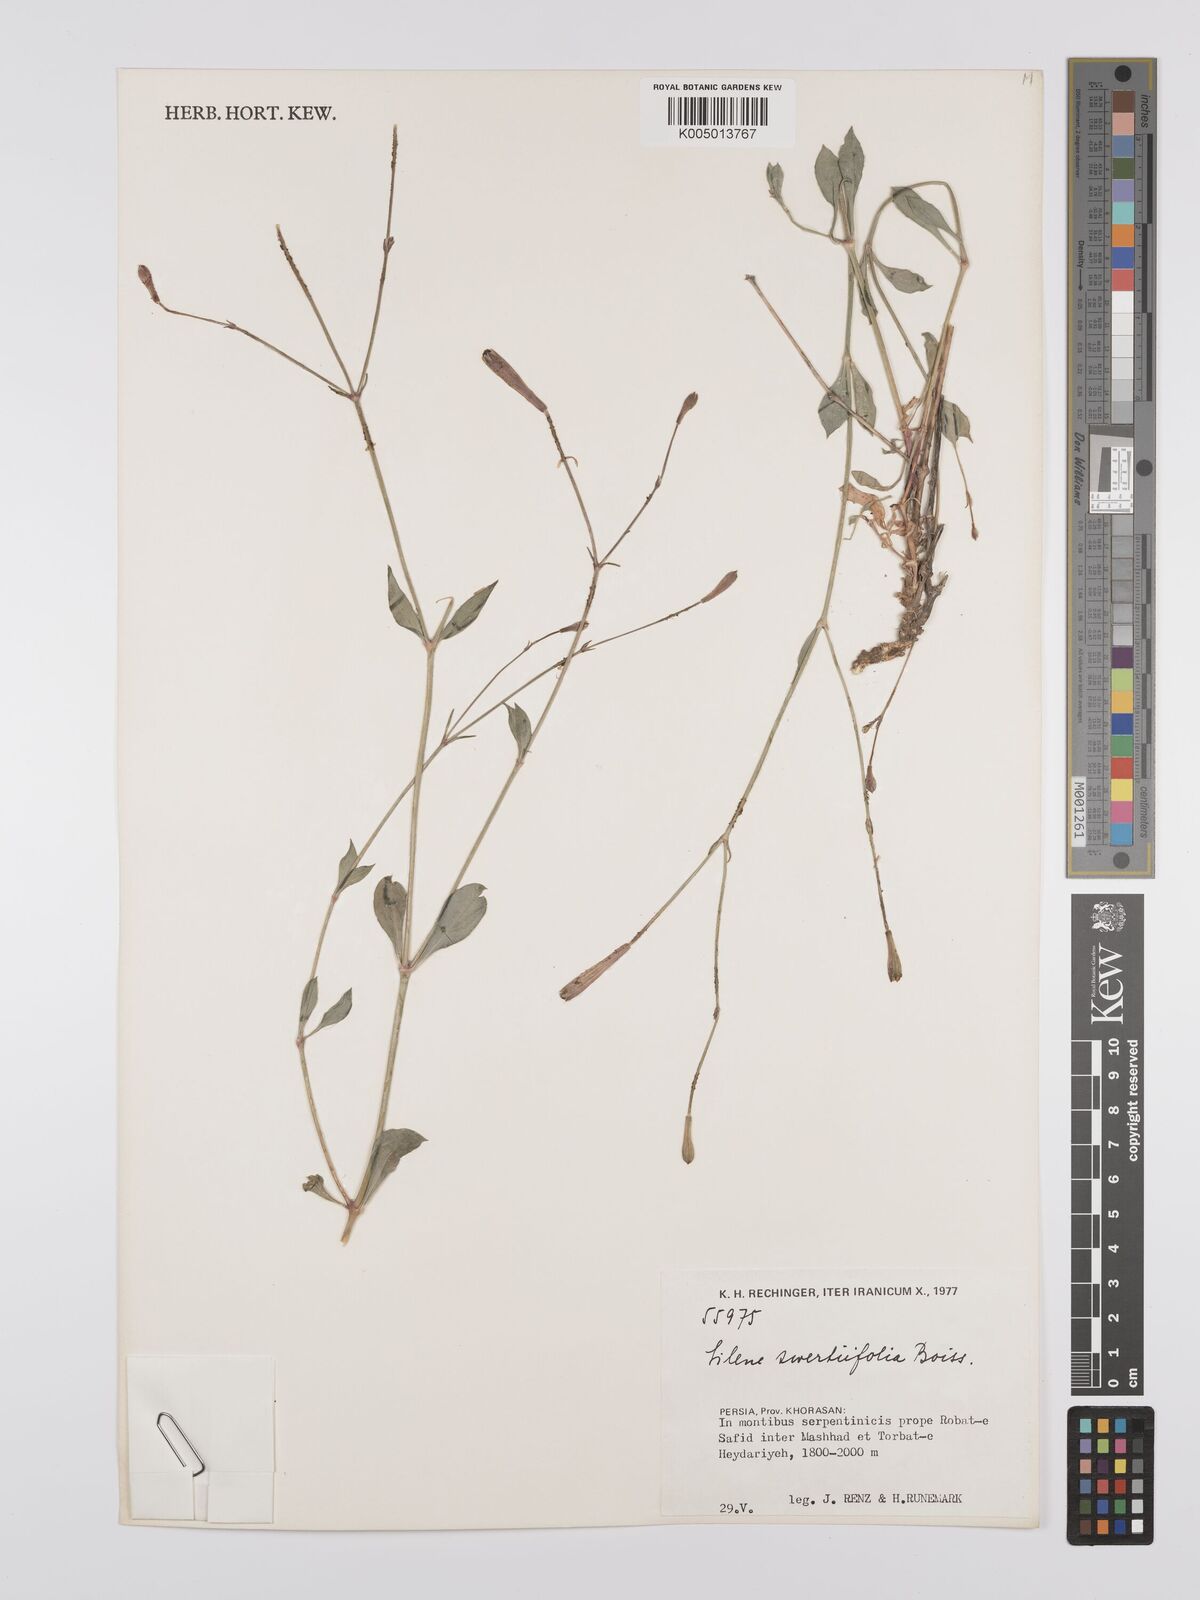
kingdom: Plantae
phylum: Tracheophyta
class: Magnoliopsida
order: Caryophyllales
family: Caryophyllaceae
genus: Silene
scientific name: Silene swertiifolia
